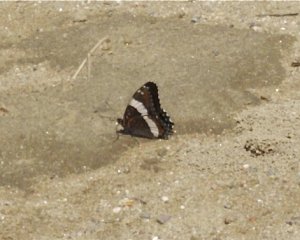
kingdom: Animalia
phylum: Arthropoda
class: Insecta
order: Lepidoptera
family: Nymphalidae
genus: Limenitis
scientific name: Limenitis arthemis
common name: Red-spotted Admiral
